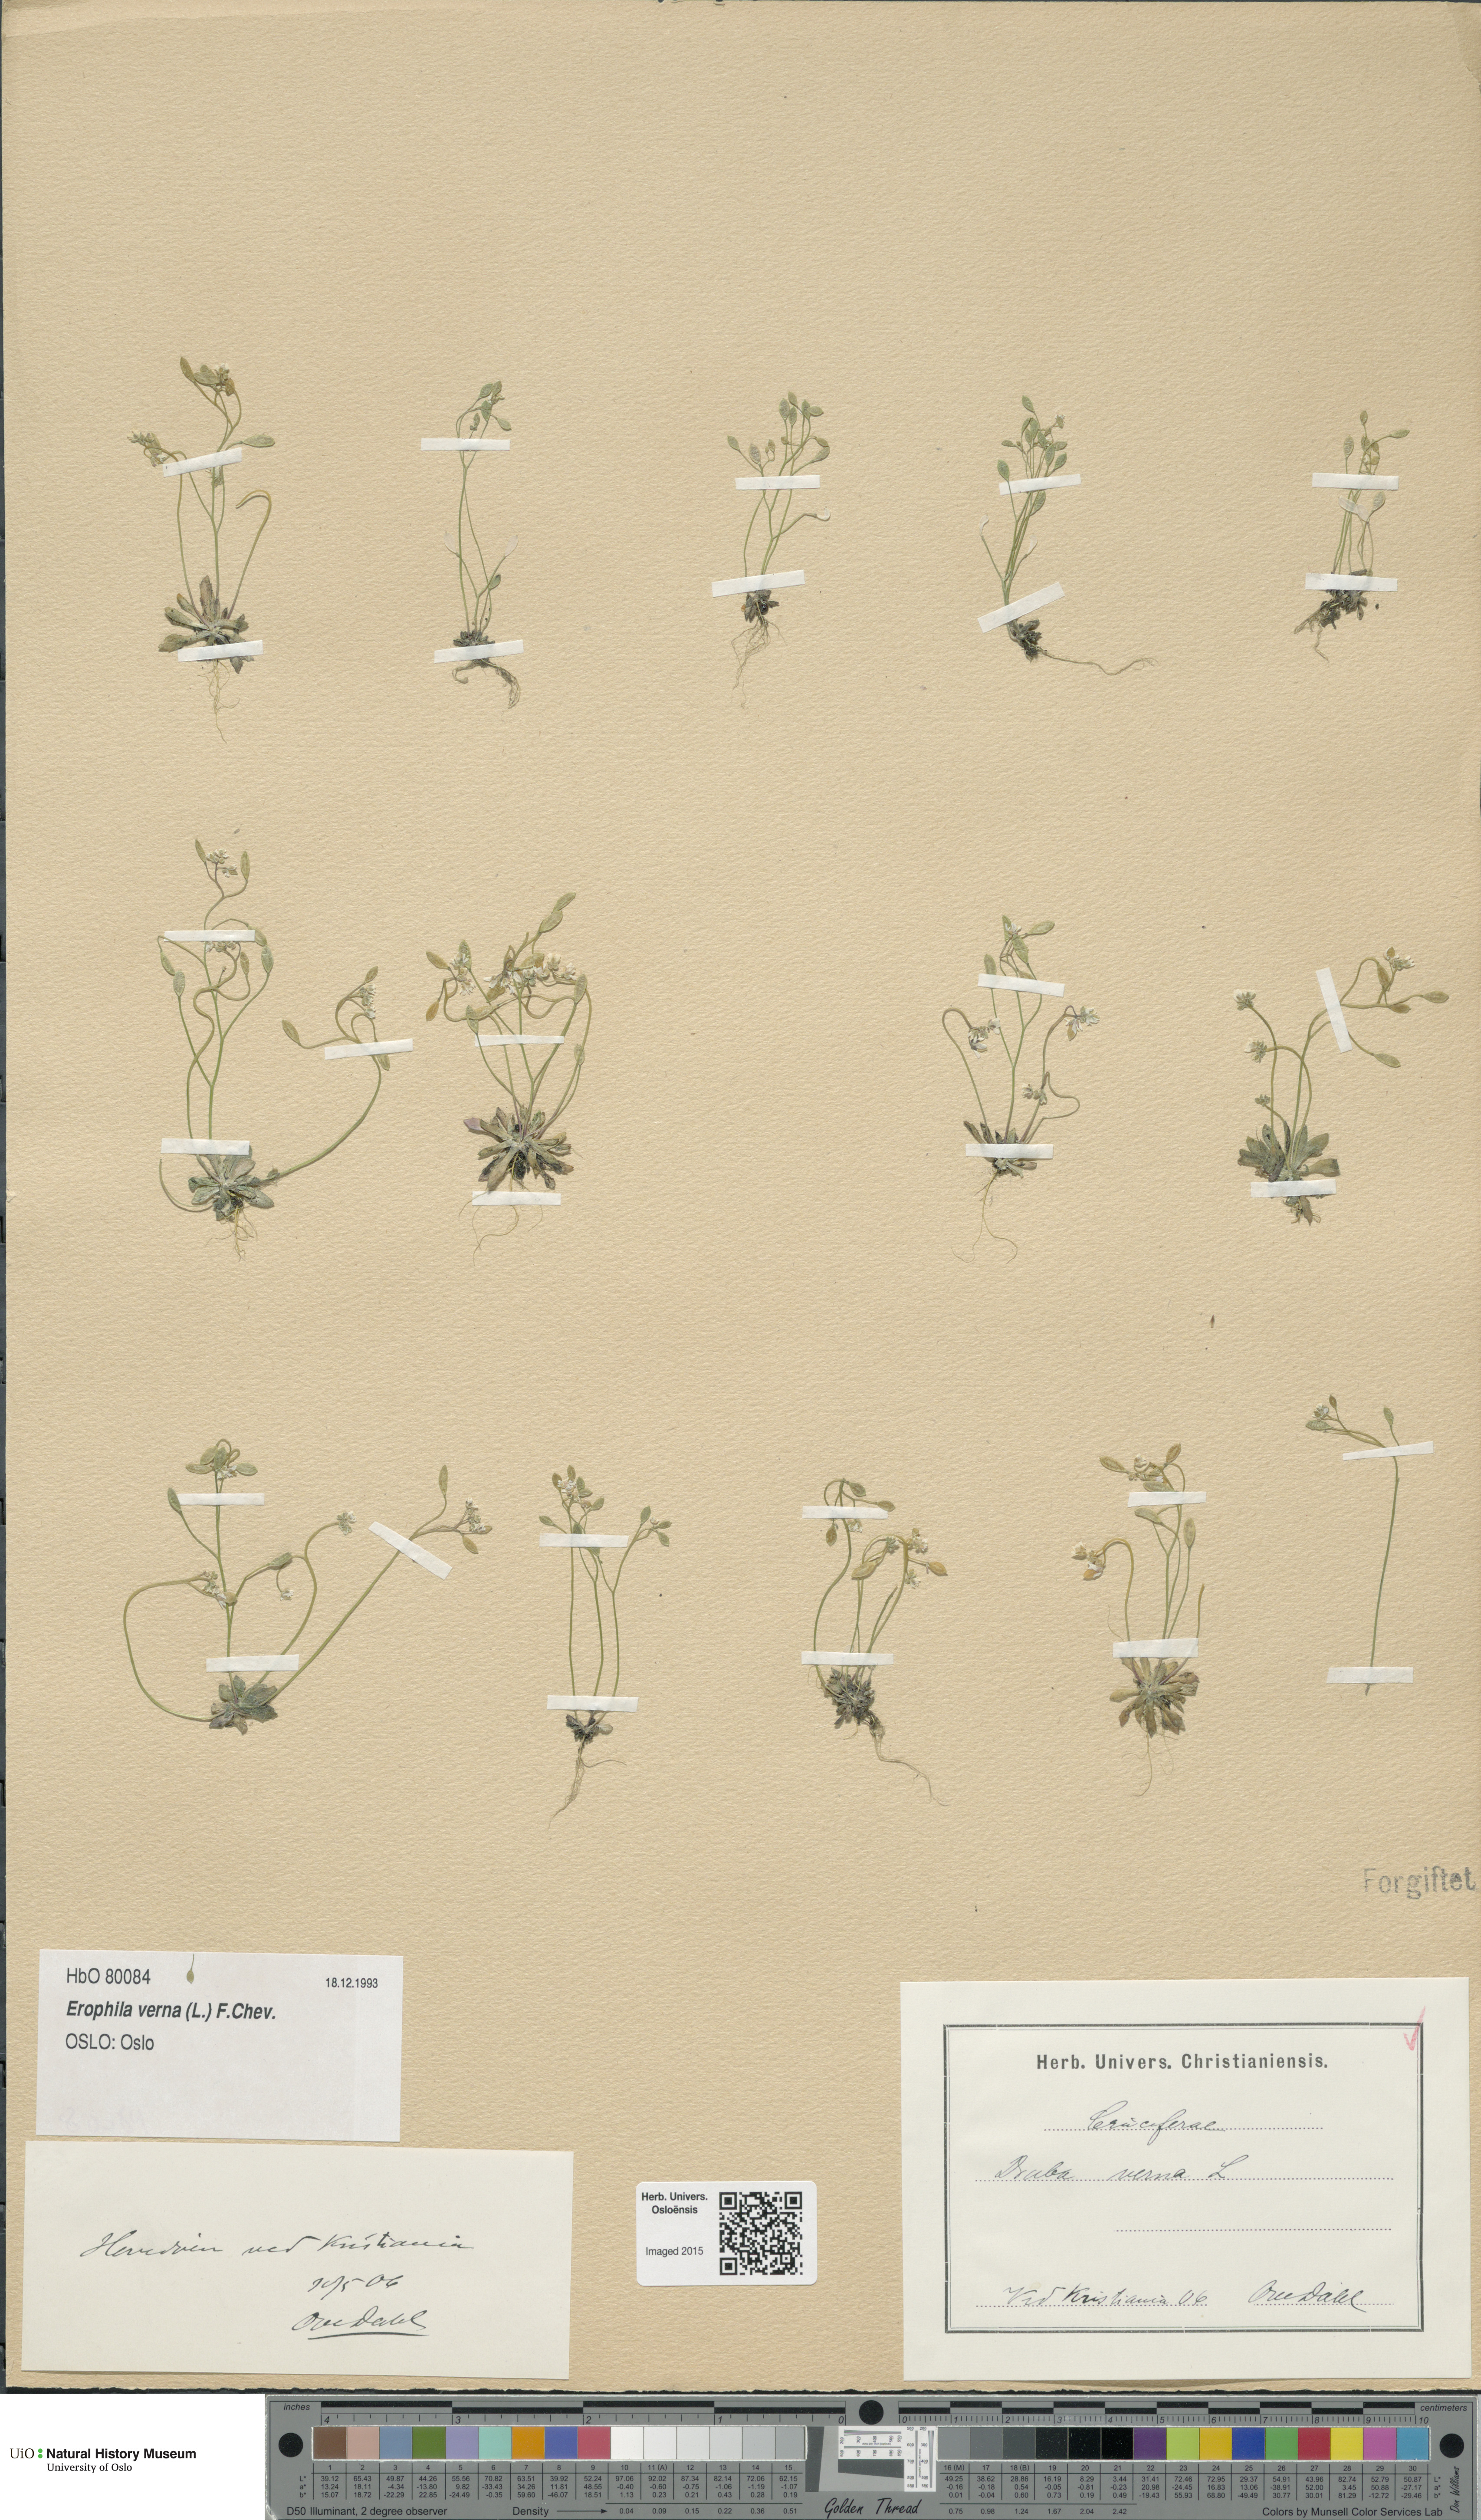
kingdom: Plantae
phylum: Tracheophyta
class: Magnoliopsida
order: Brassicales
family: Brassicaceae
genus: Draba
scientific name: Draba verna
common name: Spring draba
